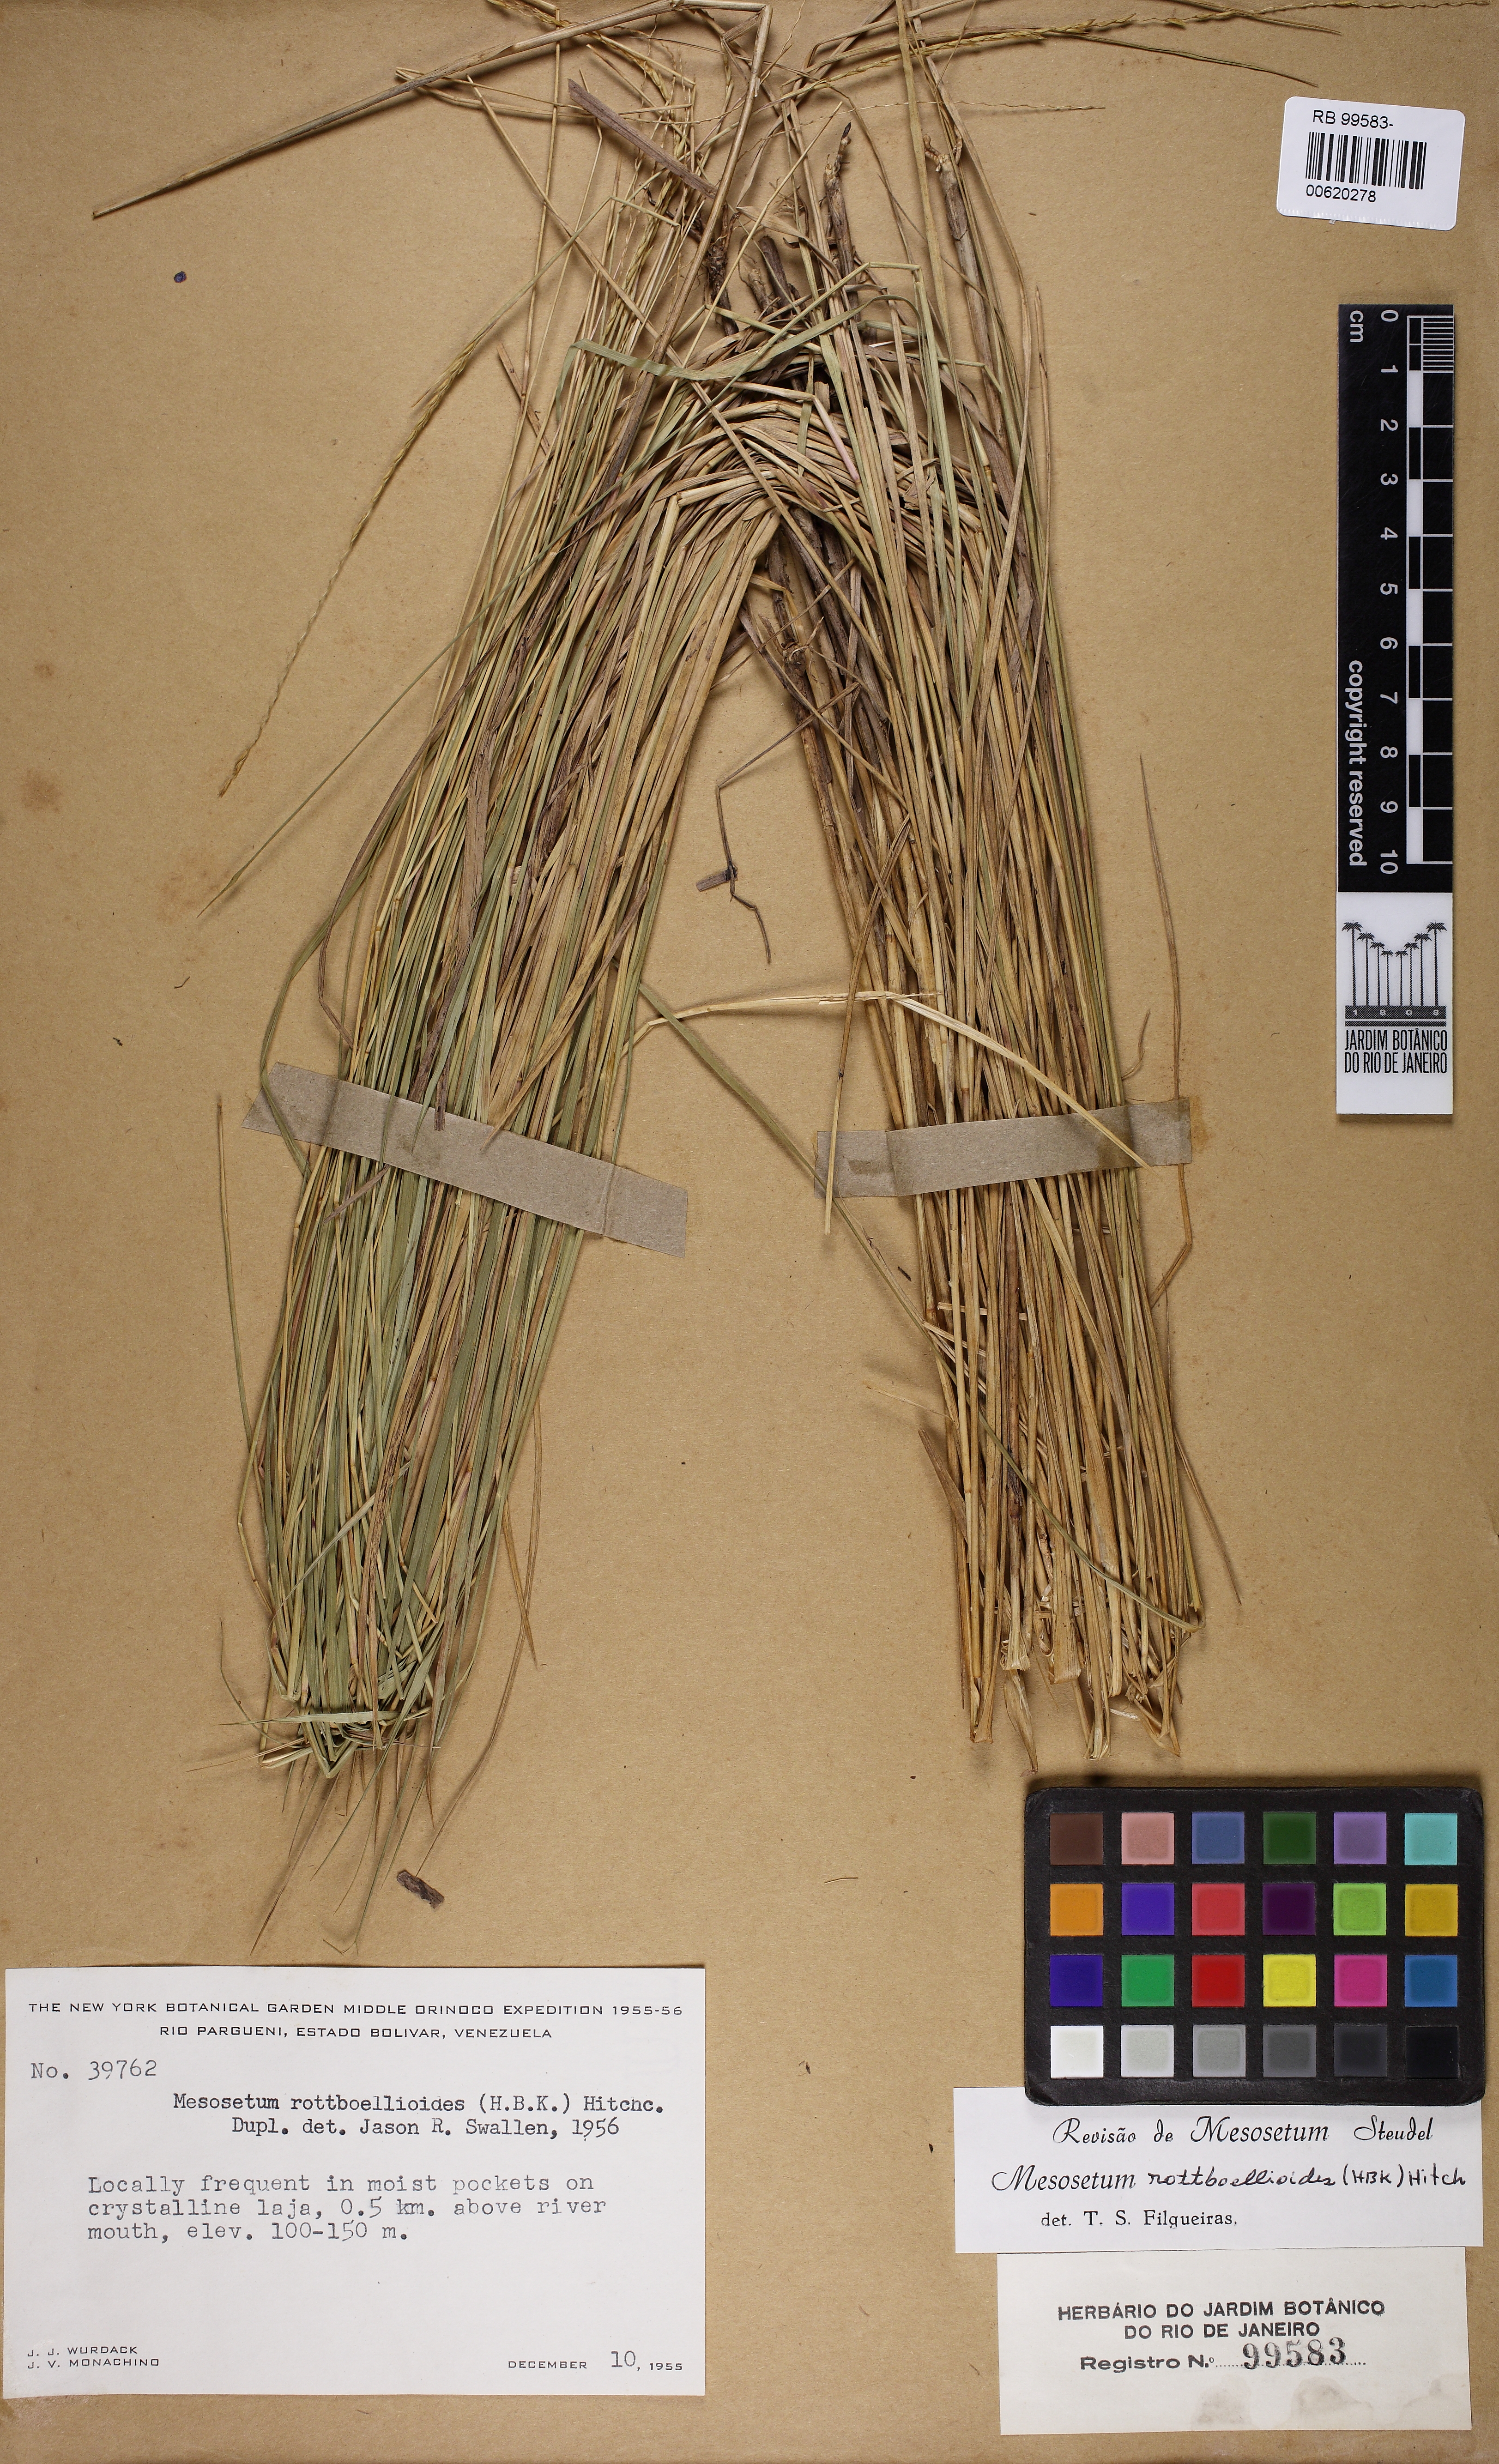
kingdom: Plantae
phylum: Tracheophyta
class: Liliopsida
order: Poales
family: Poaceae
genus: Mesosetum
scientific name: Mesosetum rottboellioides
